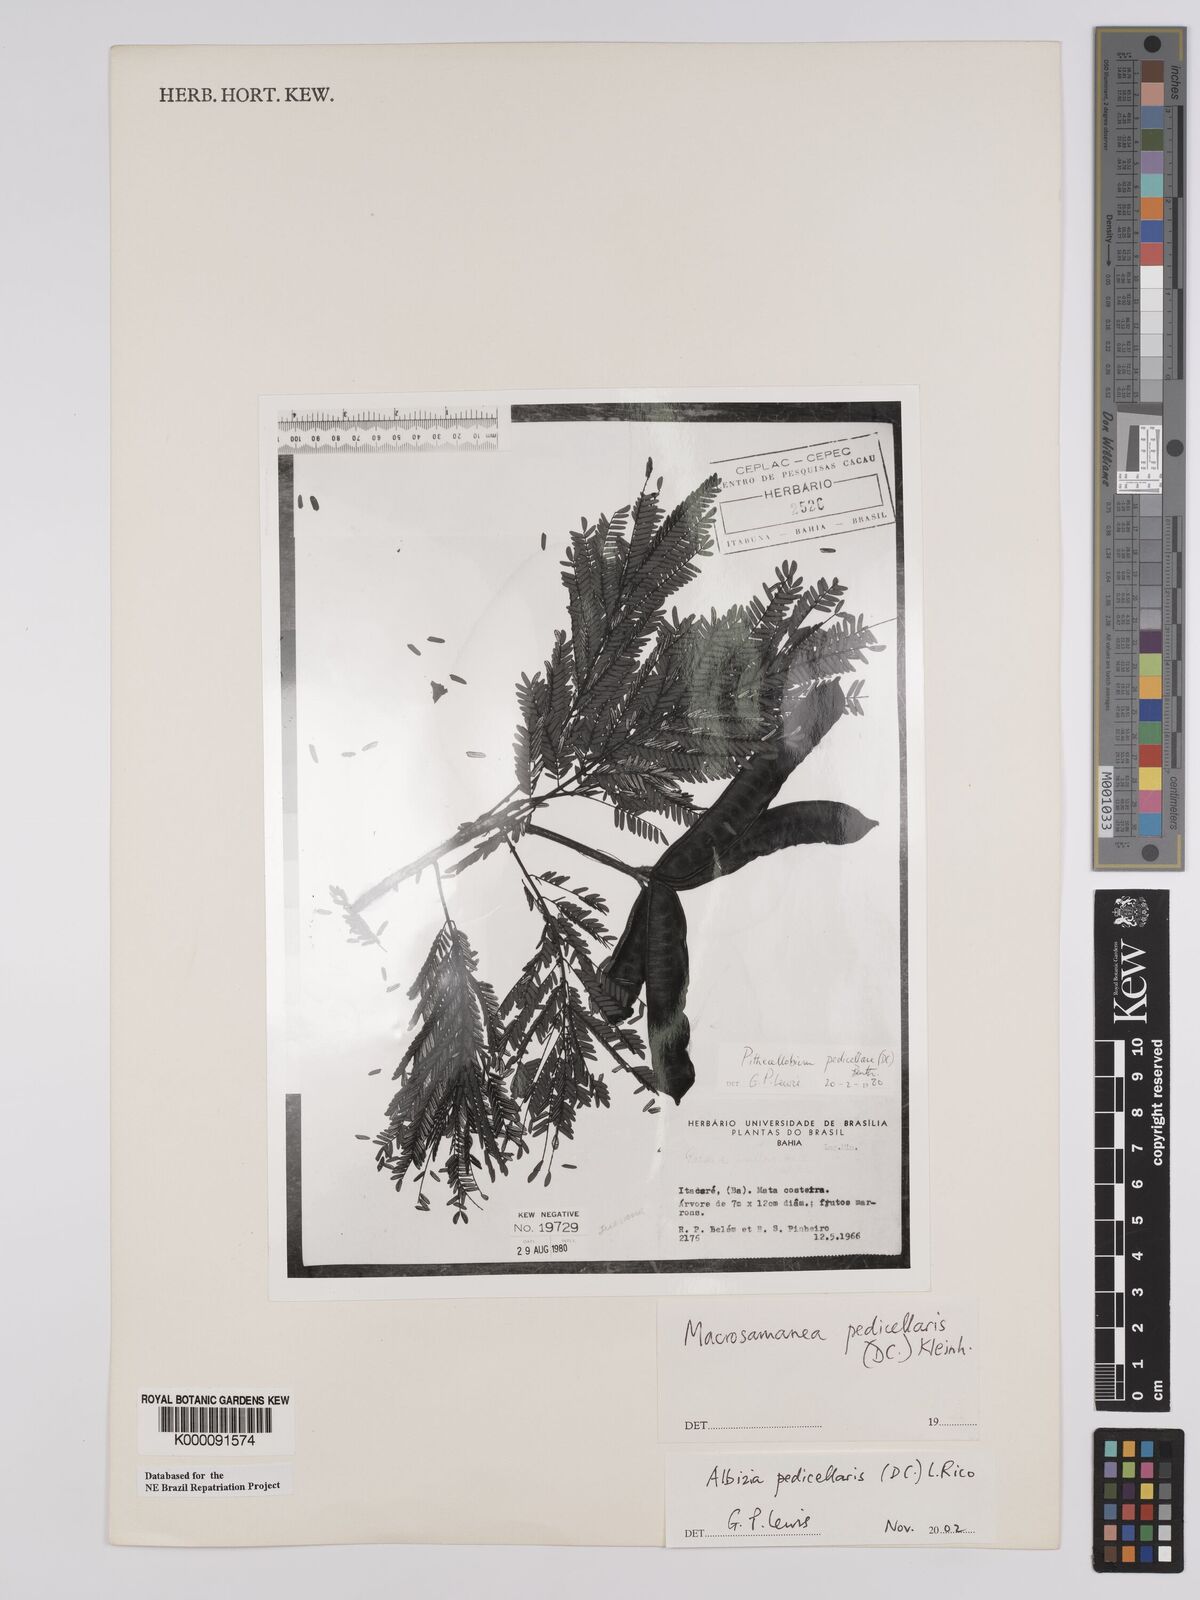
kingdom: Plantae
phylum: Tracheophyta
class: Magnoliopsida
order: Fabales
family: Fabaceae
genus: Balizia
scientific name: Balizia pedicellaris
